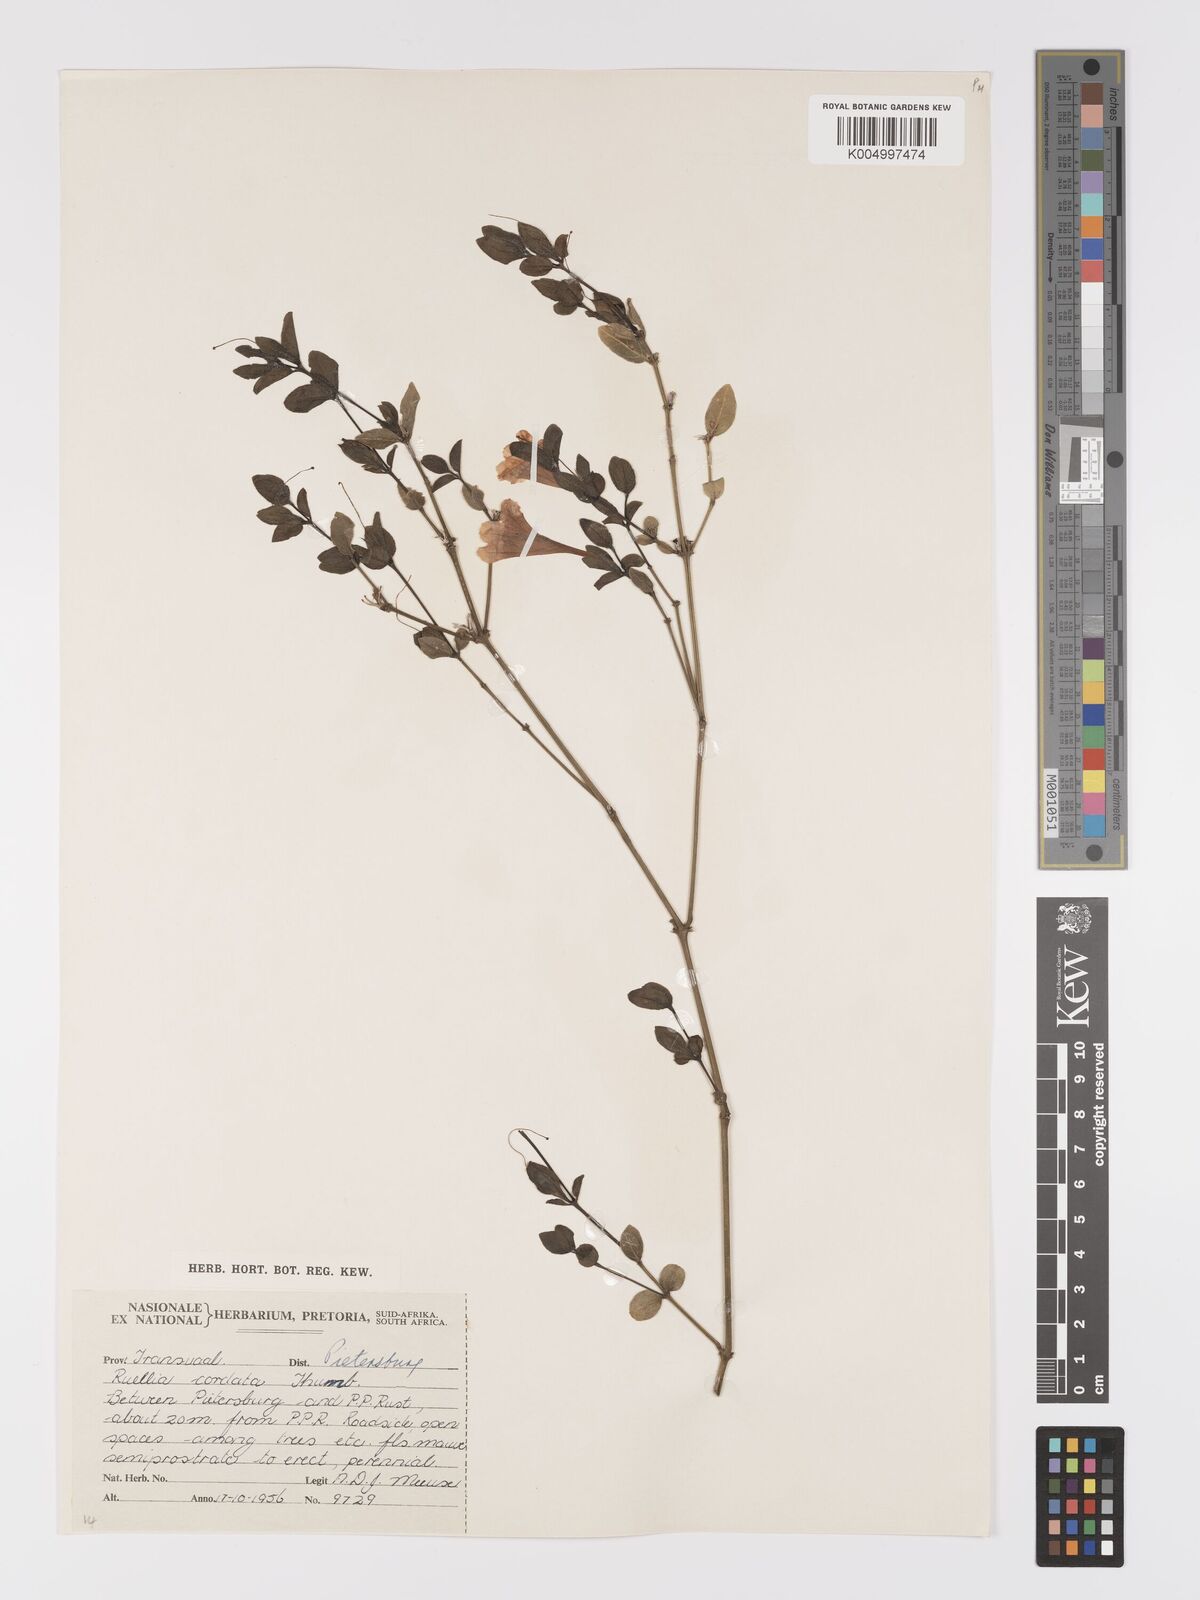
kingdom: Plantae
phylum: Tracheophyta
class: Magnoliopsida
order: Lamiales
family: Acanthaceae
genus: Ruellia
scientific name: Ruellia cordata
